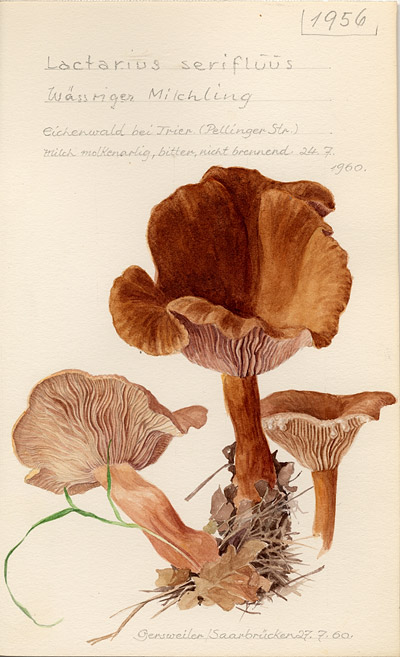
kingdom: Fungi
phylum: Basidiomycota
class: Agaricomycetes
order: Russulales
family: Russulaceae
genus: Lactarius
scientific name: Lactarius serifluus
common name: Watery milk-cap
